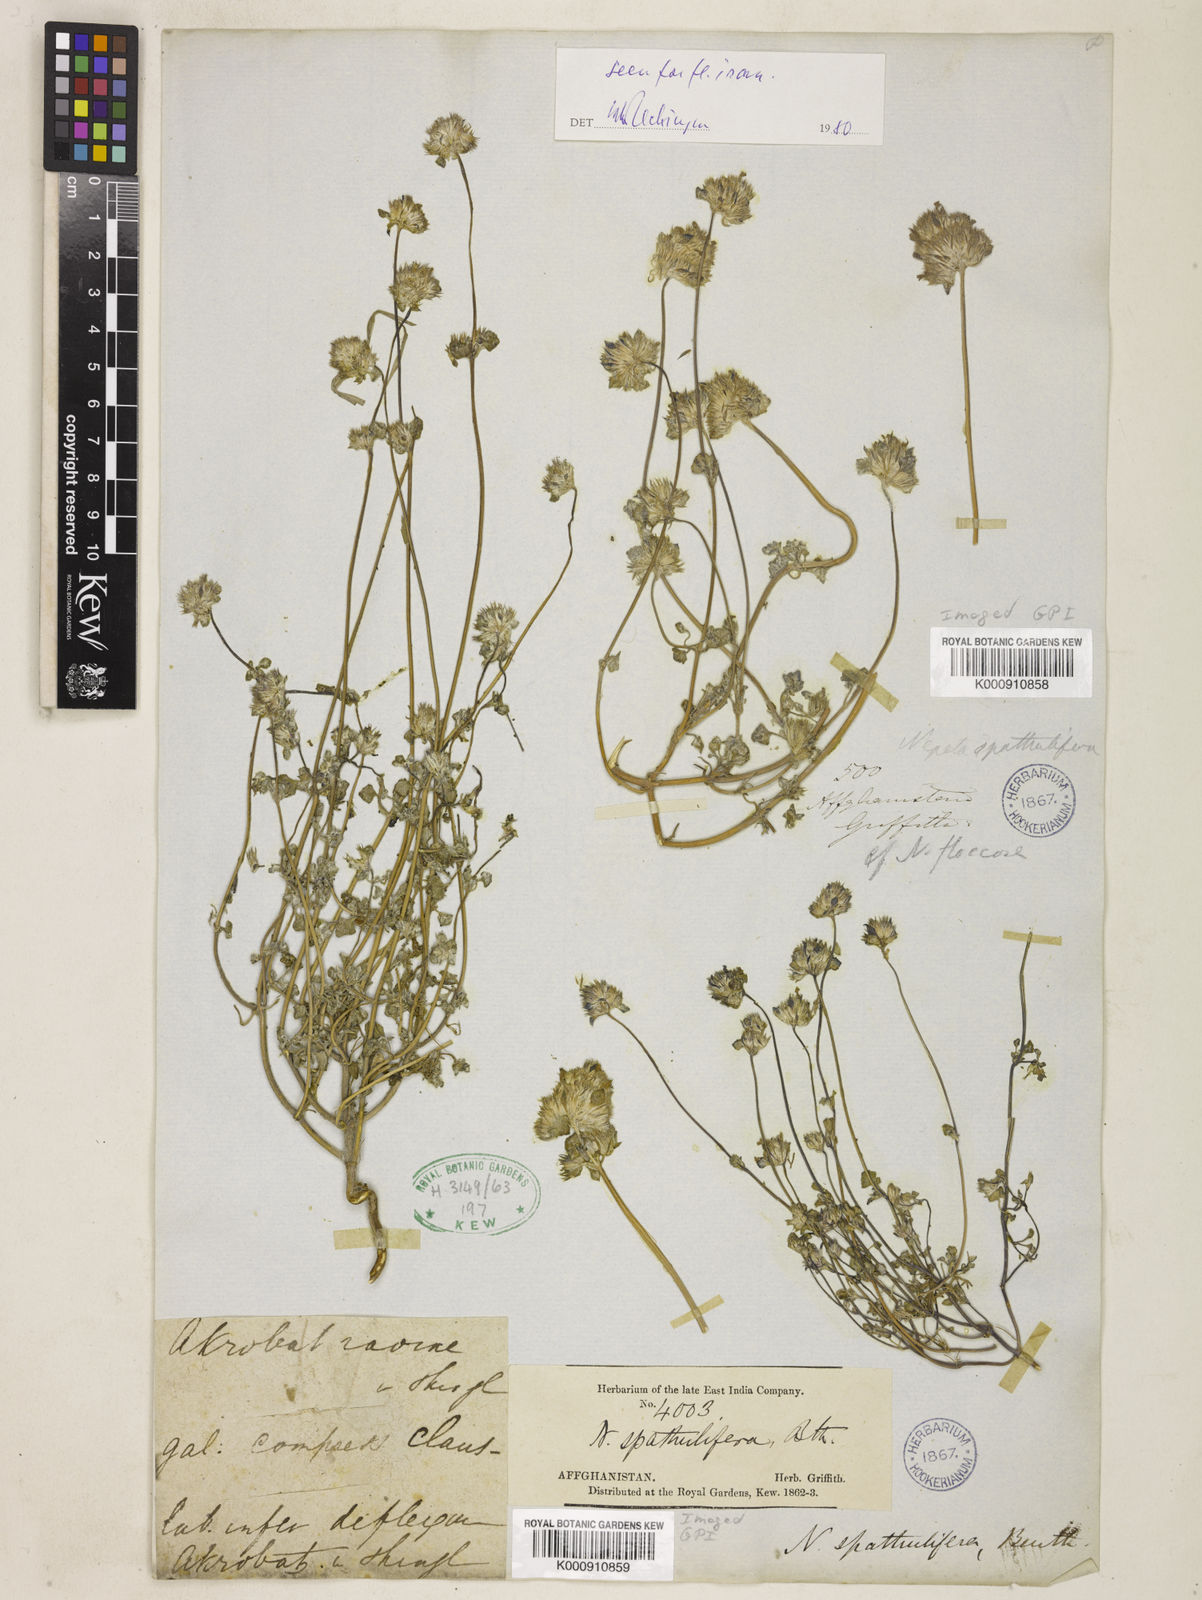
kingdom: Plantae
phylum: Tracheophyta
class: Magnoliopsida
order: Lamiales
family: Lamiaceae
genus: Nepeta
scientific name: Nepeta bracteata
